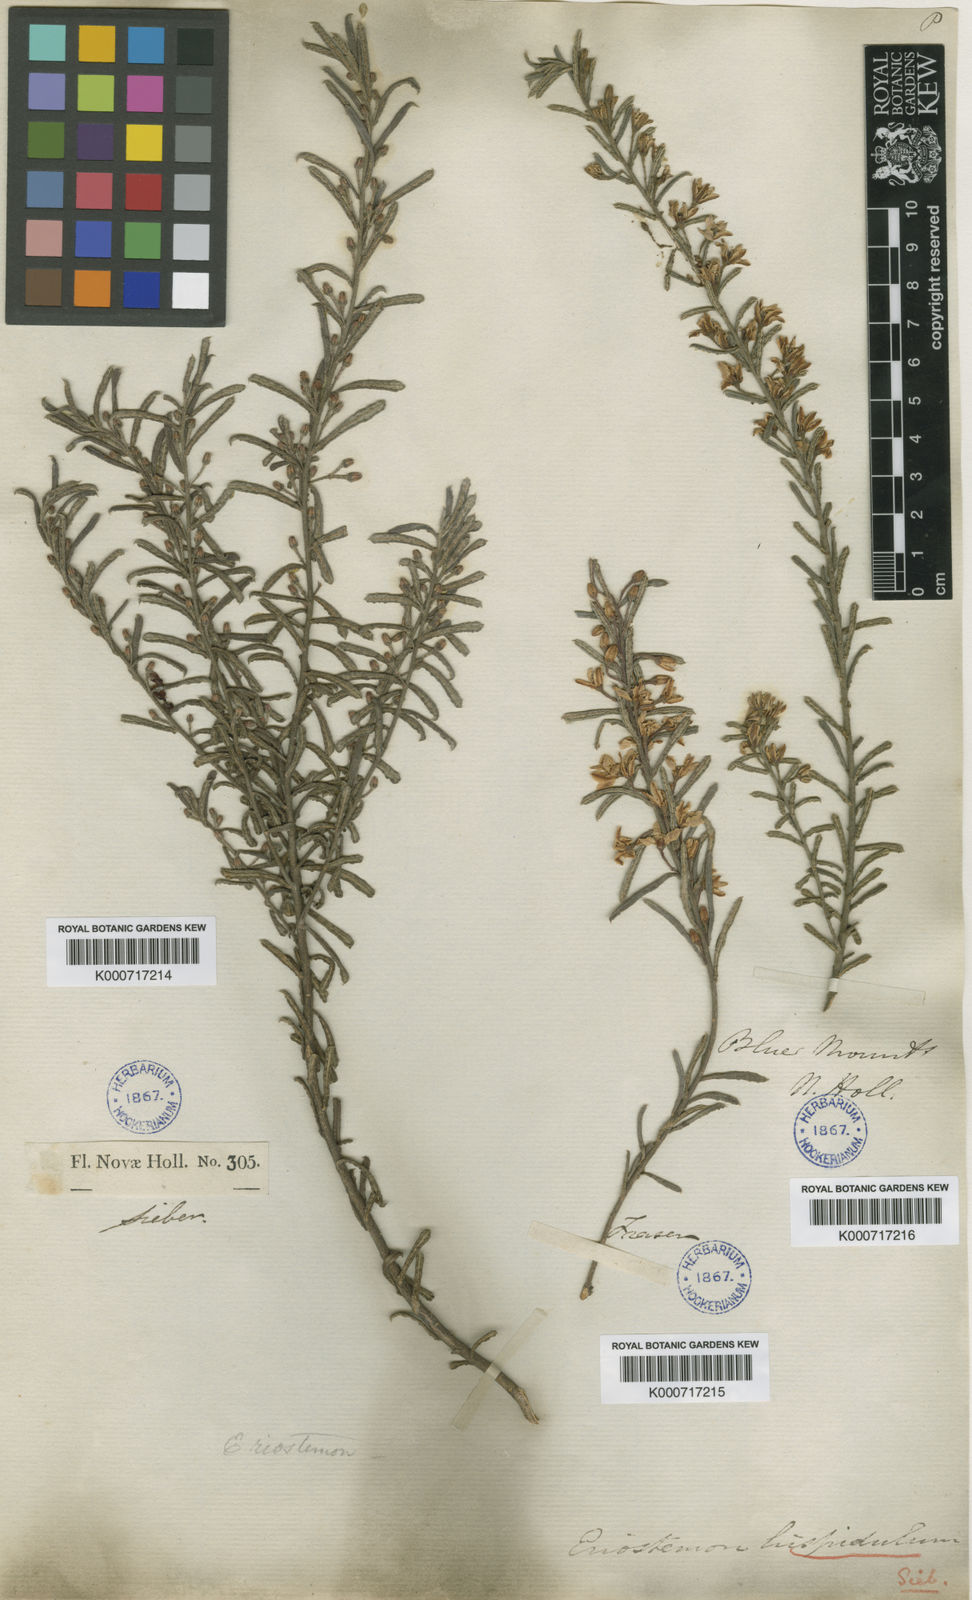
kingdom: Plantae
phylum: Tracheophyta
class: Magnoliopsida
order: Sapindales
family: Rutaceae
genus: Philotheca
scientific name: Philotheca hispidula
